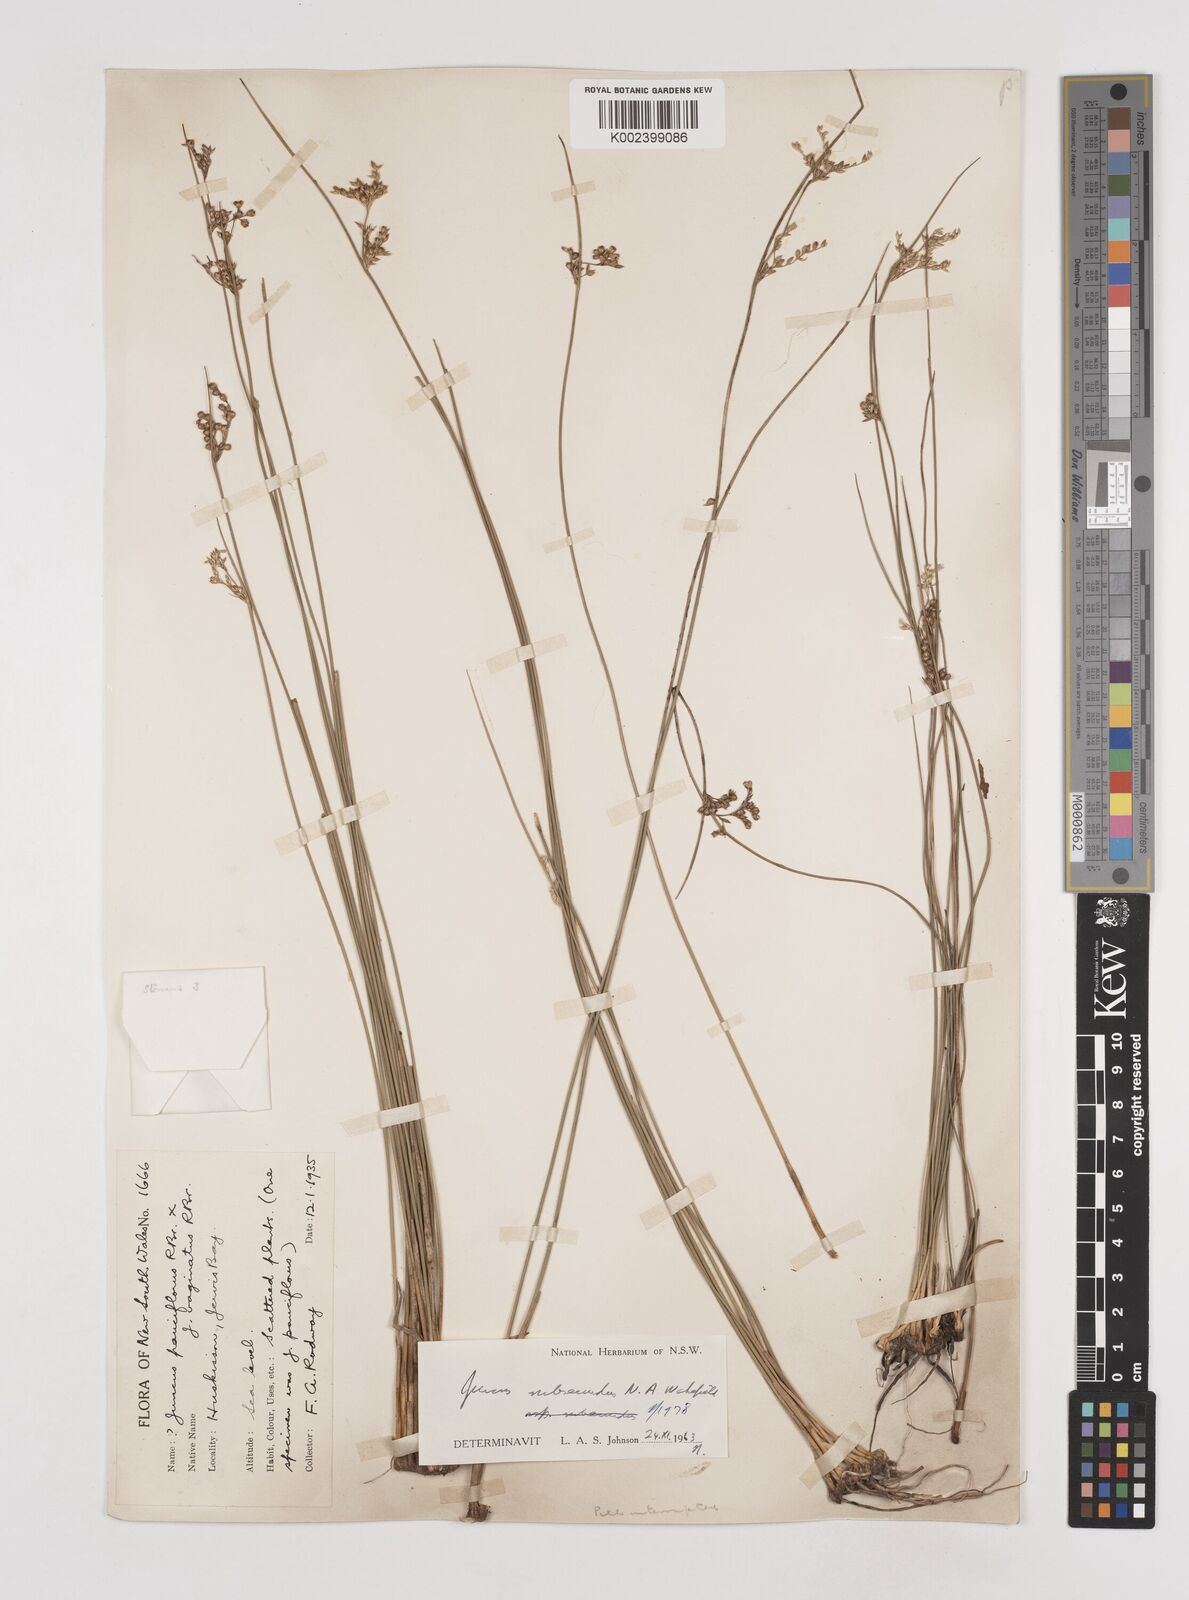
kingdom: Plantae
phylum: Tracheophyta
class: Liliopsida
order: Poales
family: Juncaceae
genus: Juncus
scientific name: Juncus subsecundus
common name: Fingered rush
